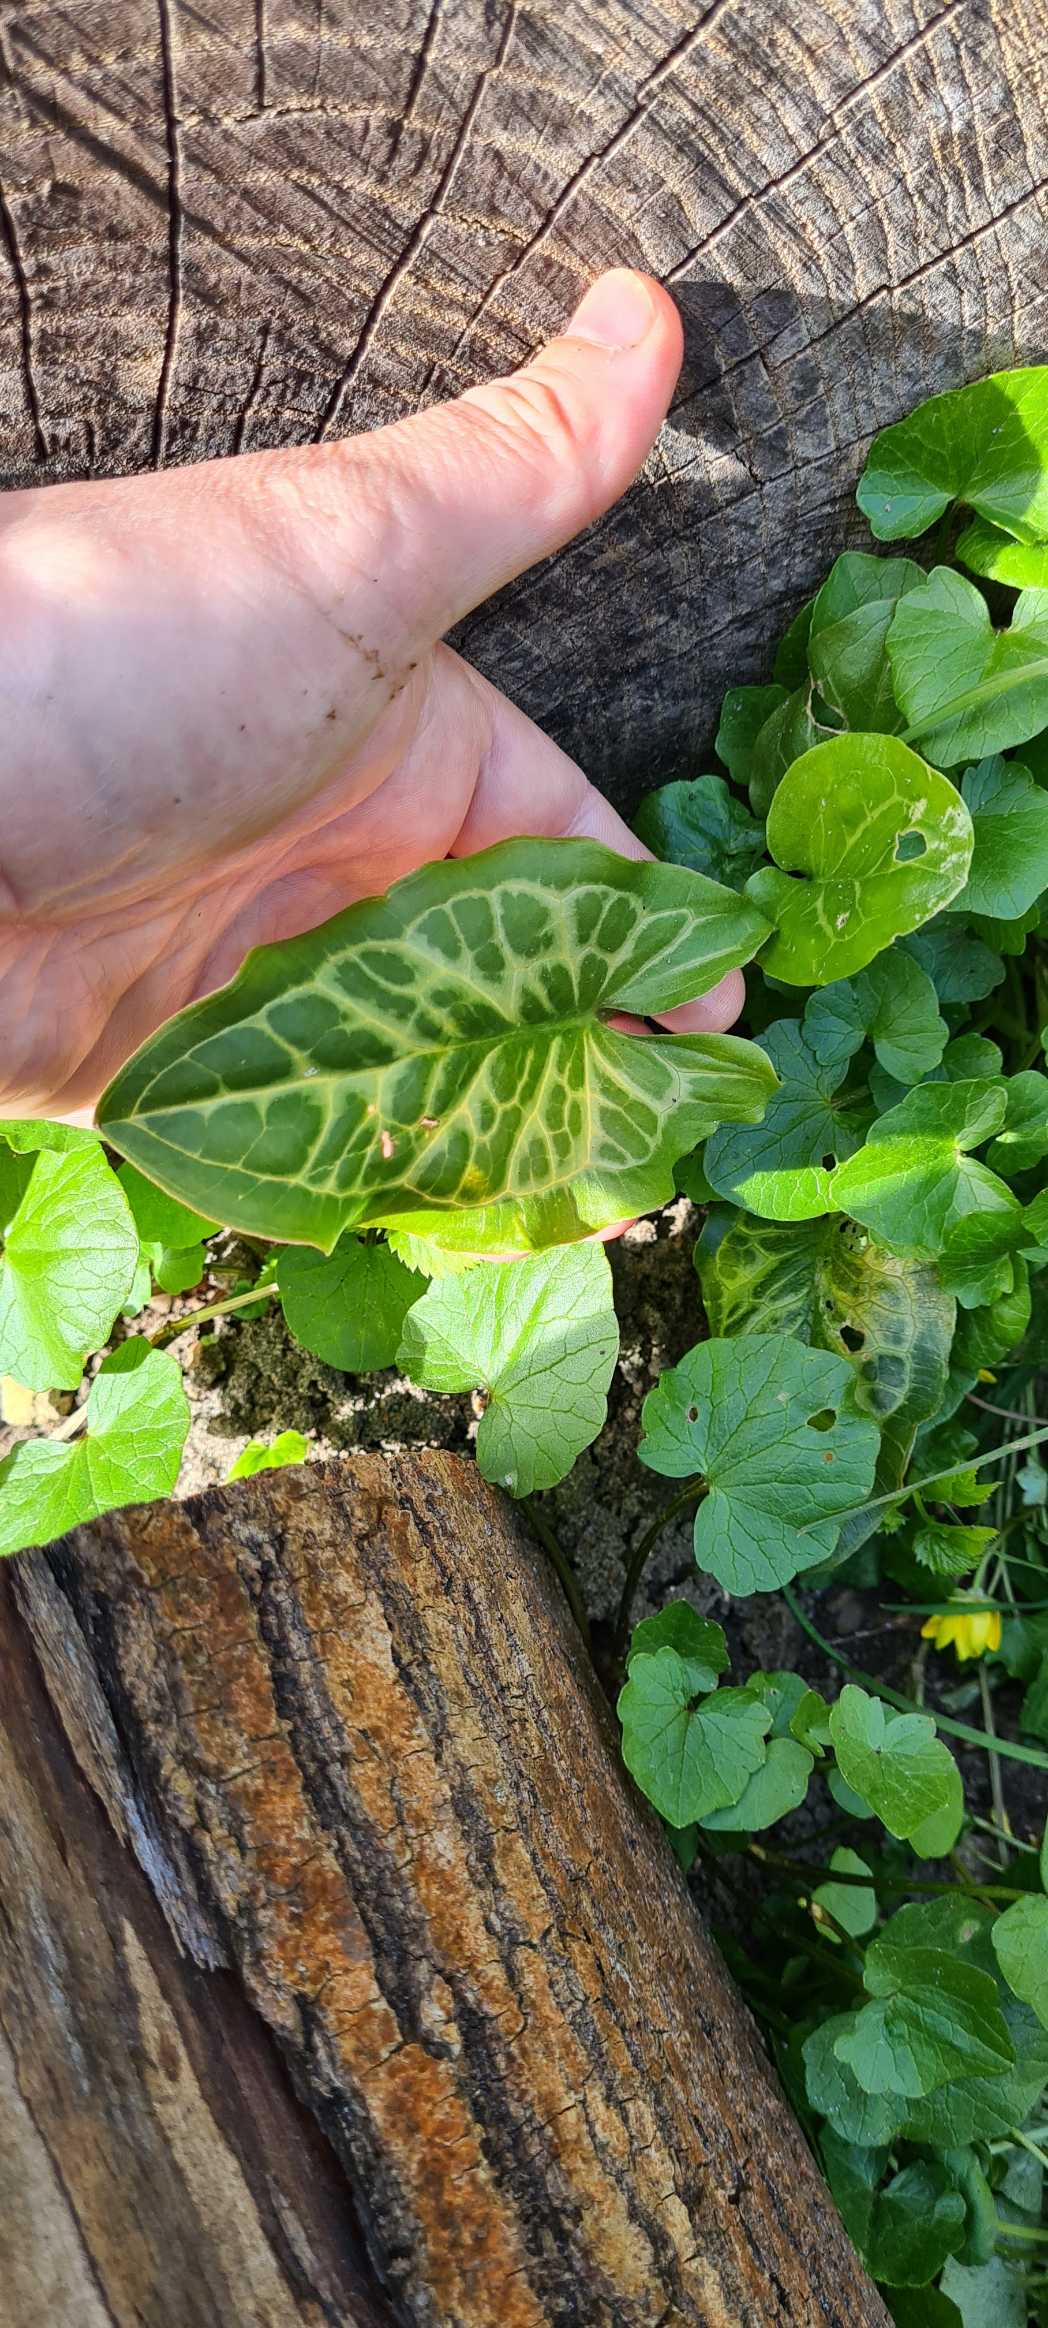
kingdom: Plantae
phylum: Tracheophyta
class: Liliopsida
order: Alismatales
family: Araceae
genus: Arum
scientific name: Arum italicum
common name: Italiensk arum
